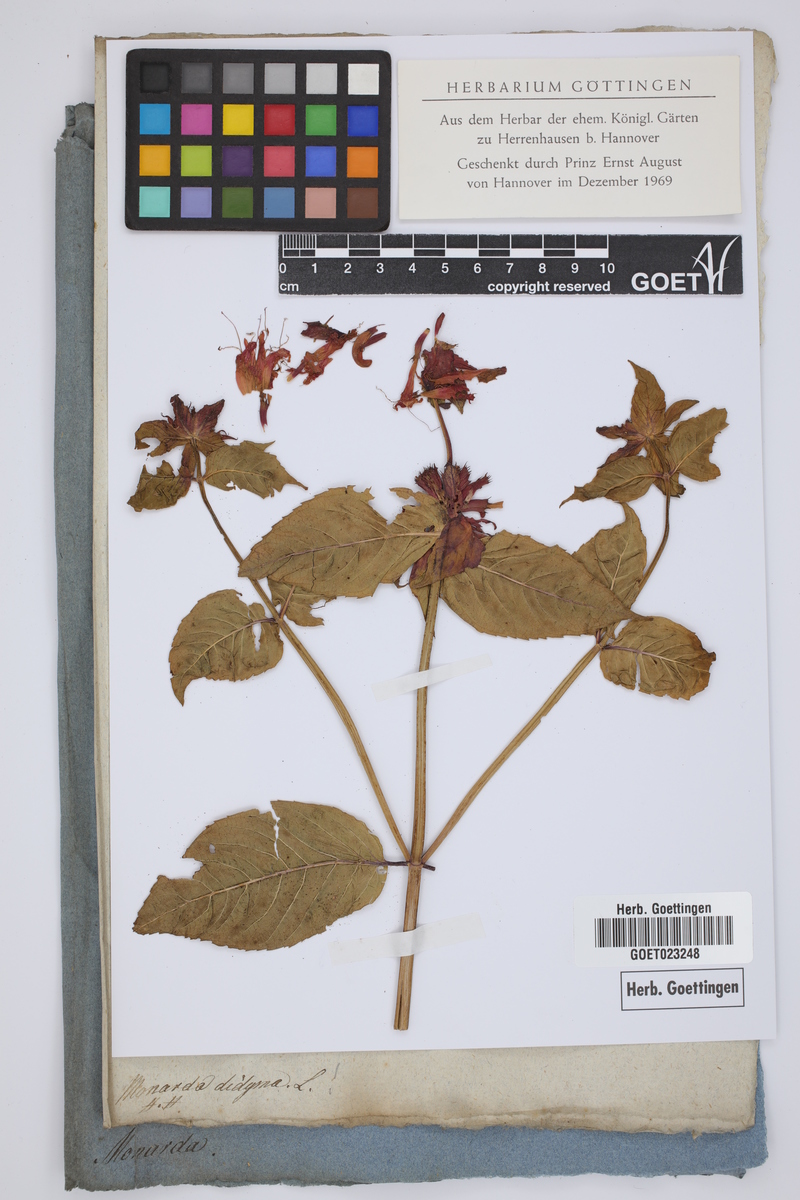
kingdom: Plantae
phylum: Tracheophyta
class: Magnoliopsida
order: Lamiales
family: Lamiaceae
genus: Monarda
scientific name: Monarda didyma
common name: Beebalm
